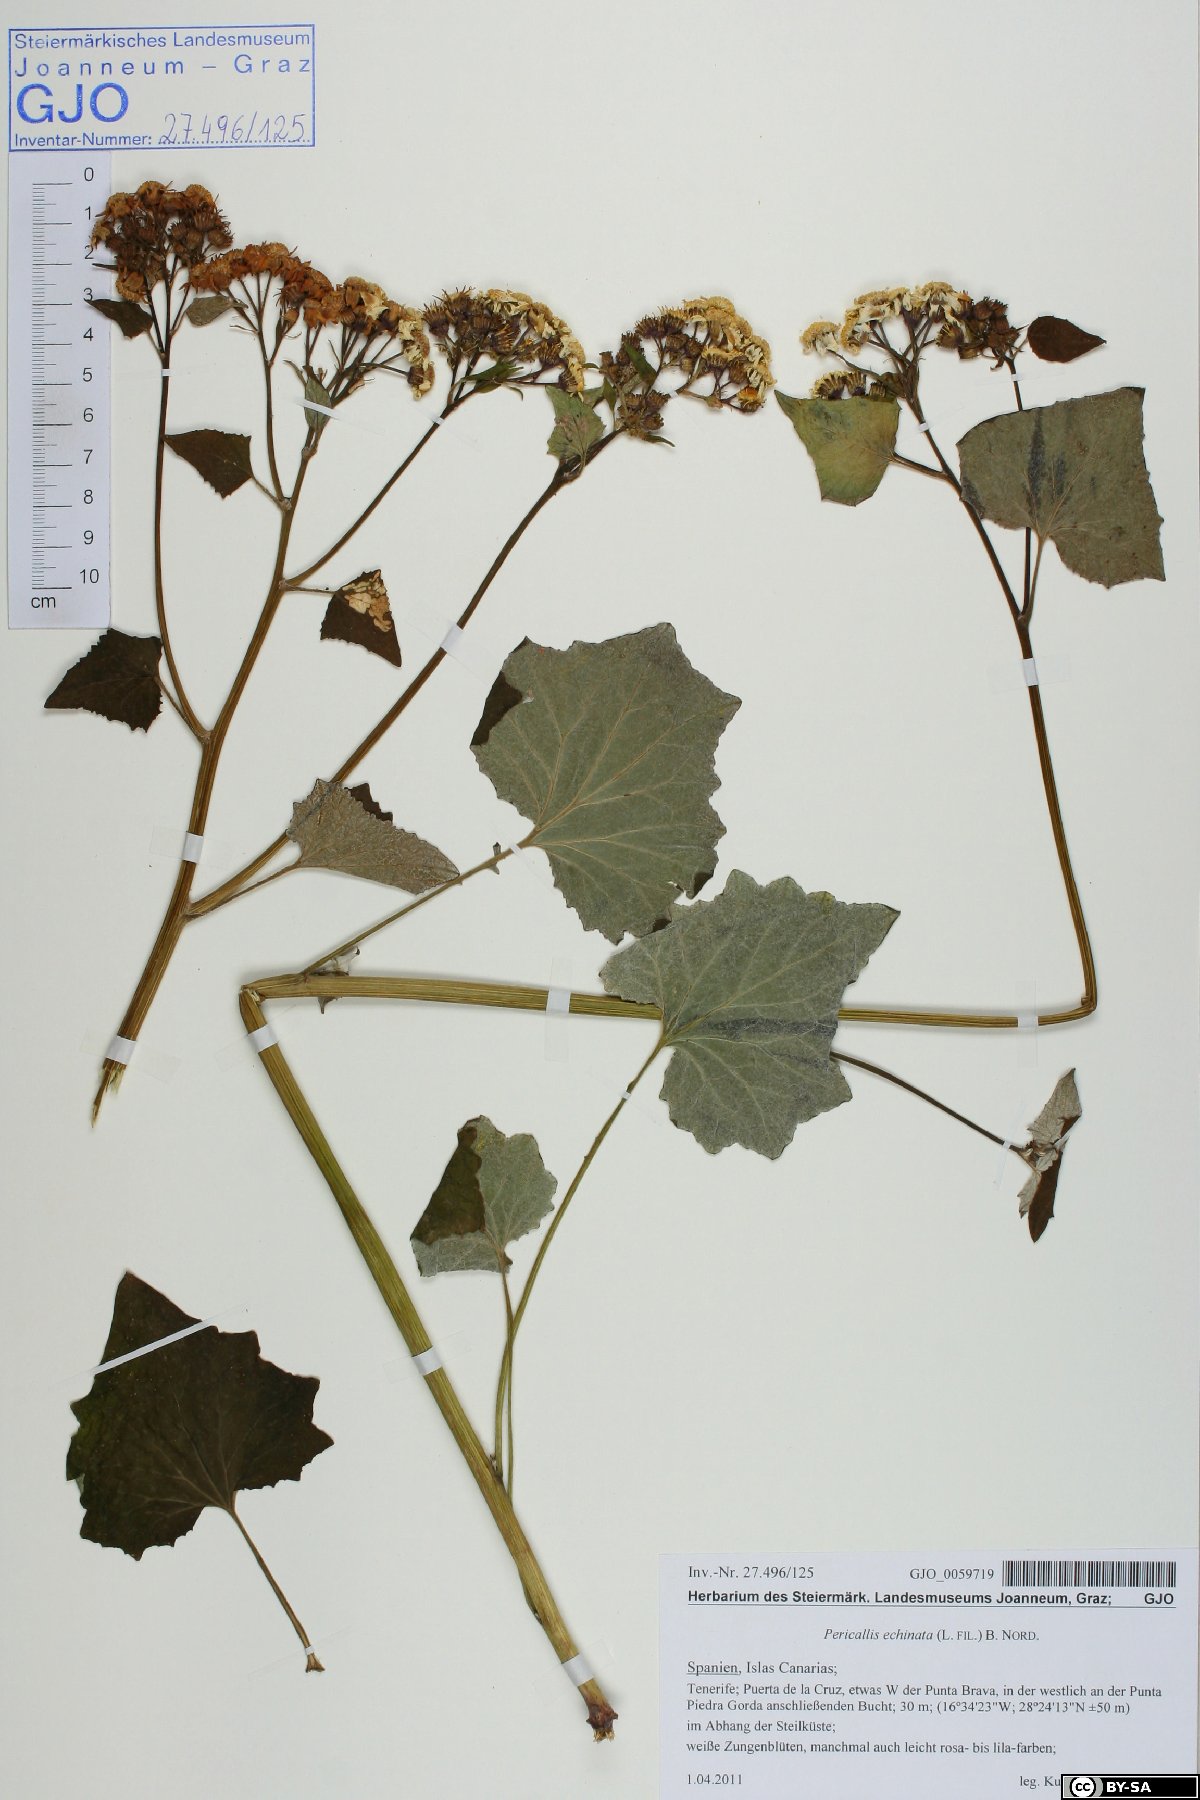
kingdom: Plantae
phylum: Tracheophyta
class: Magnoliopsida
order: Asterales
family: Asteraceae
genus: Pericallis
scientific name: Pericallis echinata
